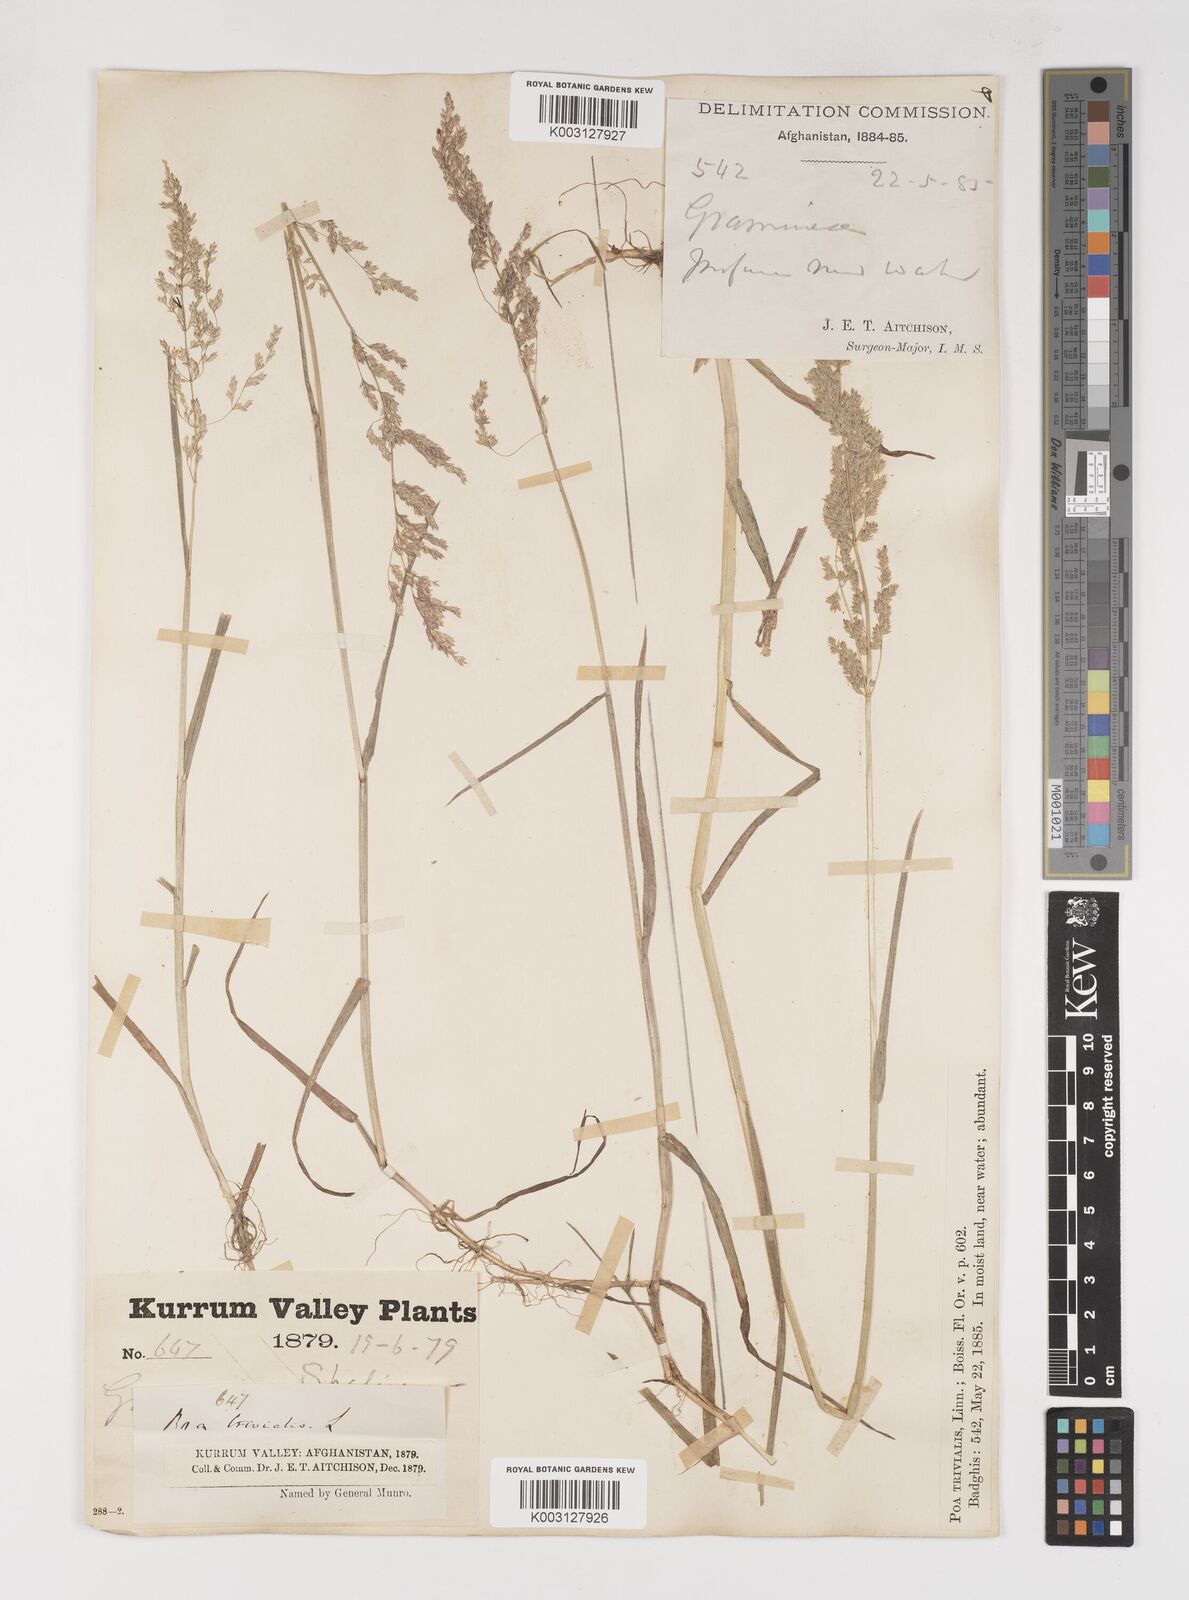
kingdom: Plantae
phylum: Tracheophyta
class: Liliopsida
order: Poales
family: Poaceae
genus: Poa
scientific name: Poa trivialis
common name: Rough bluegrass
